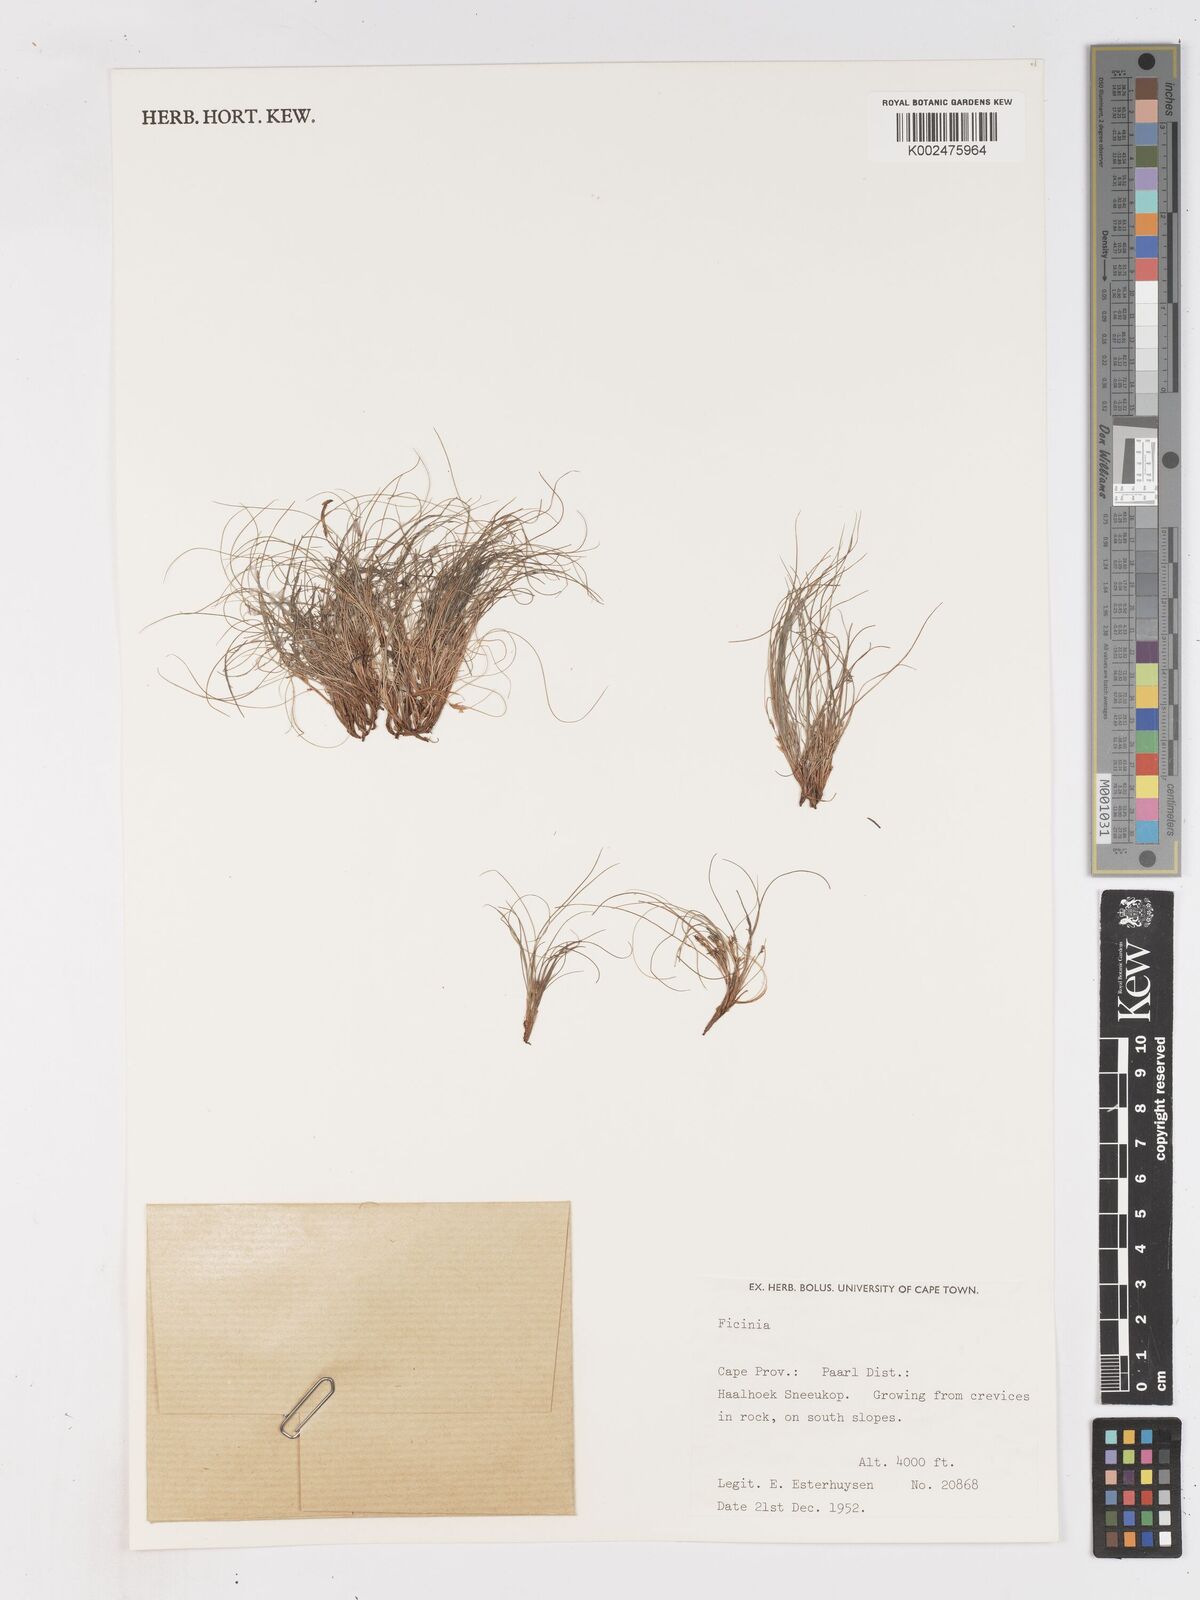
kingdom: Plantae
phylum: Tracheophyta
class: Liliopsida
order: Poales
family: Cyperaceae
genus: Ficinia
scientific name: Ficinia esterhuyseniae
